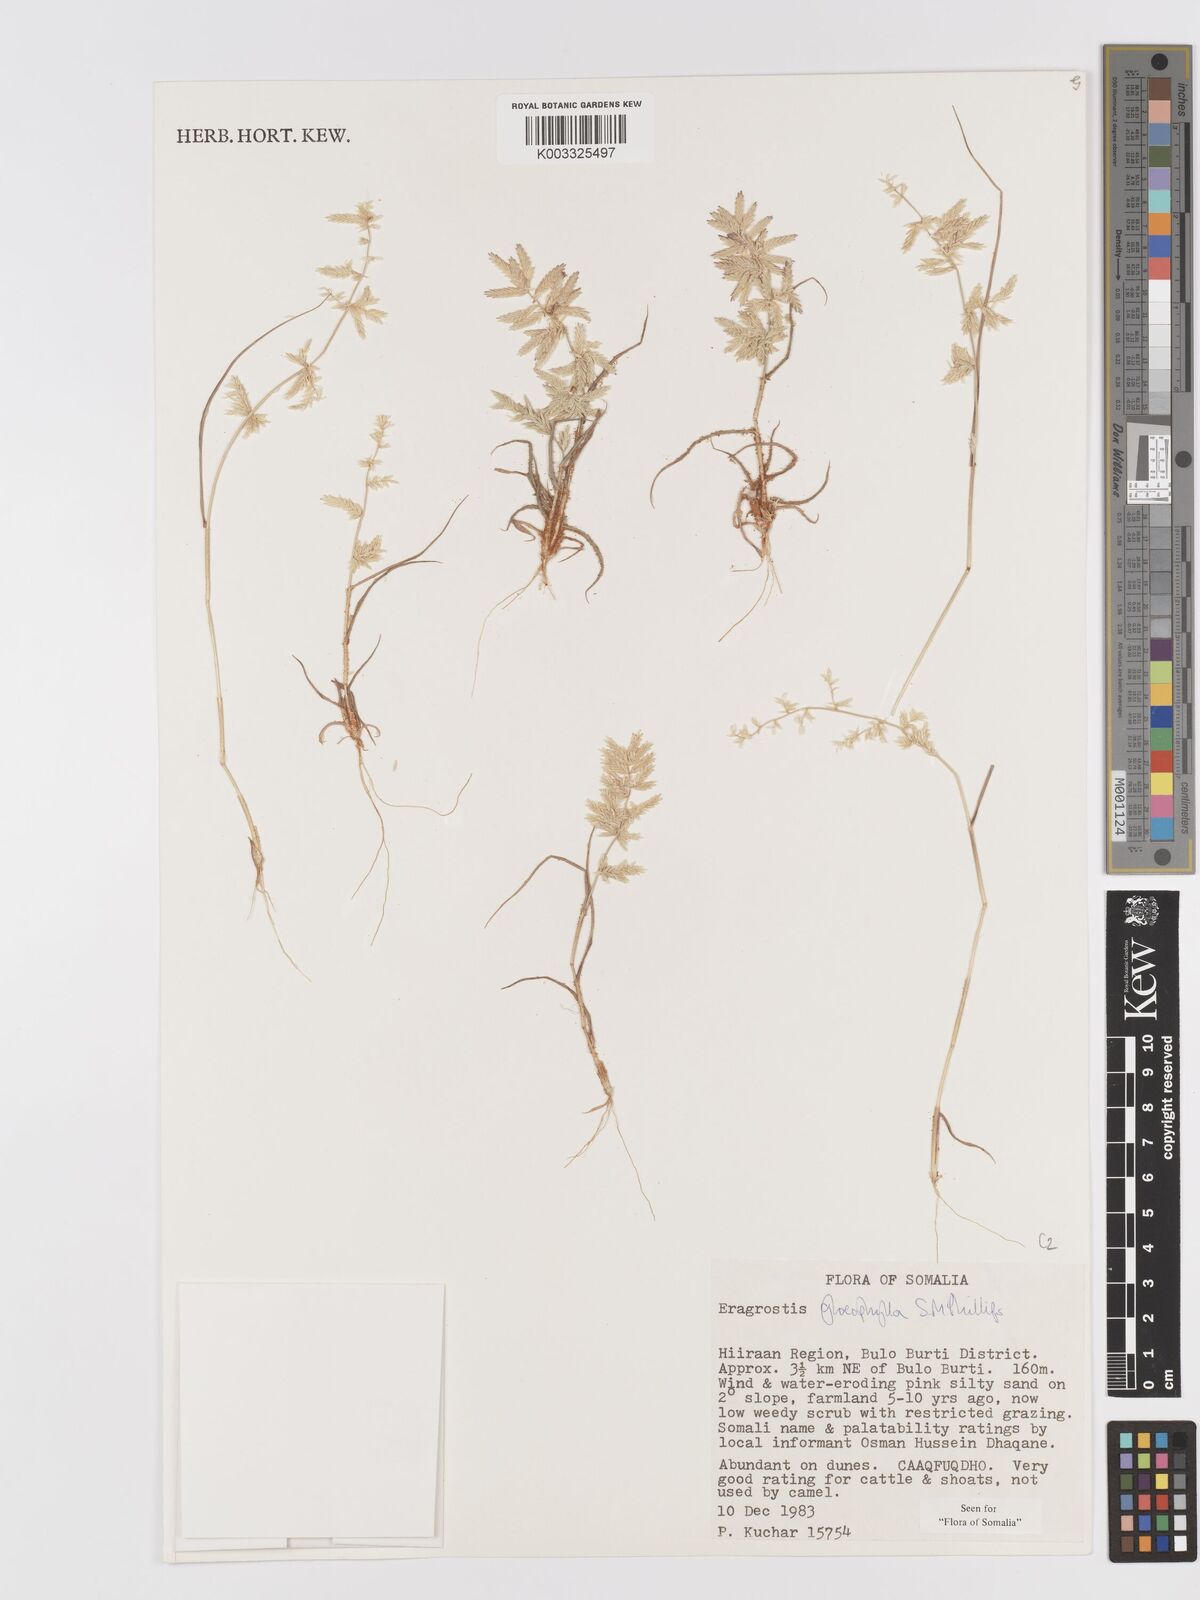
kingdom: Plantae
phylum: Tracheophyta
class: Liliopsida
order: Poales
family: Poaceae
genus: Eragrostis
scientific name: Eragrostis gloeophylla
